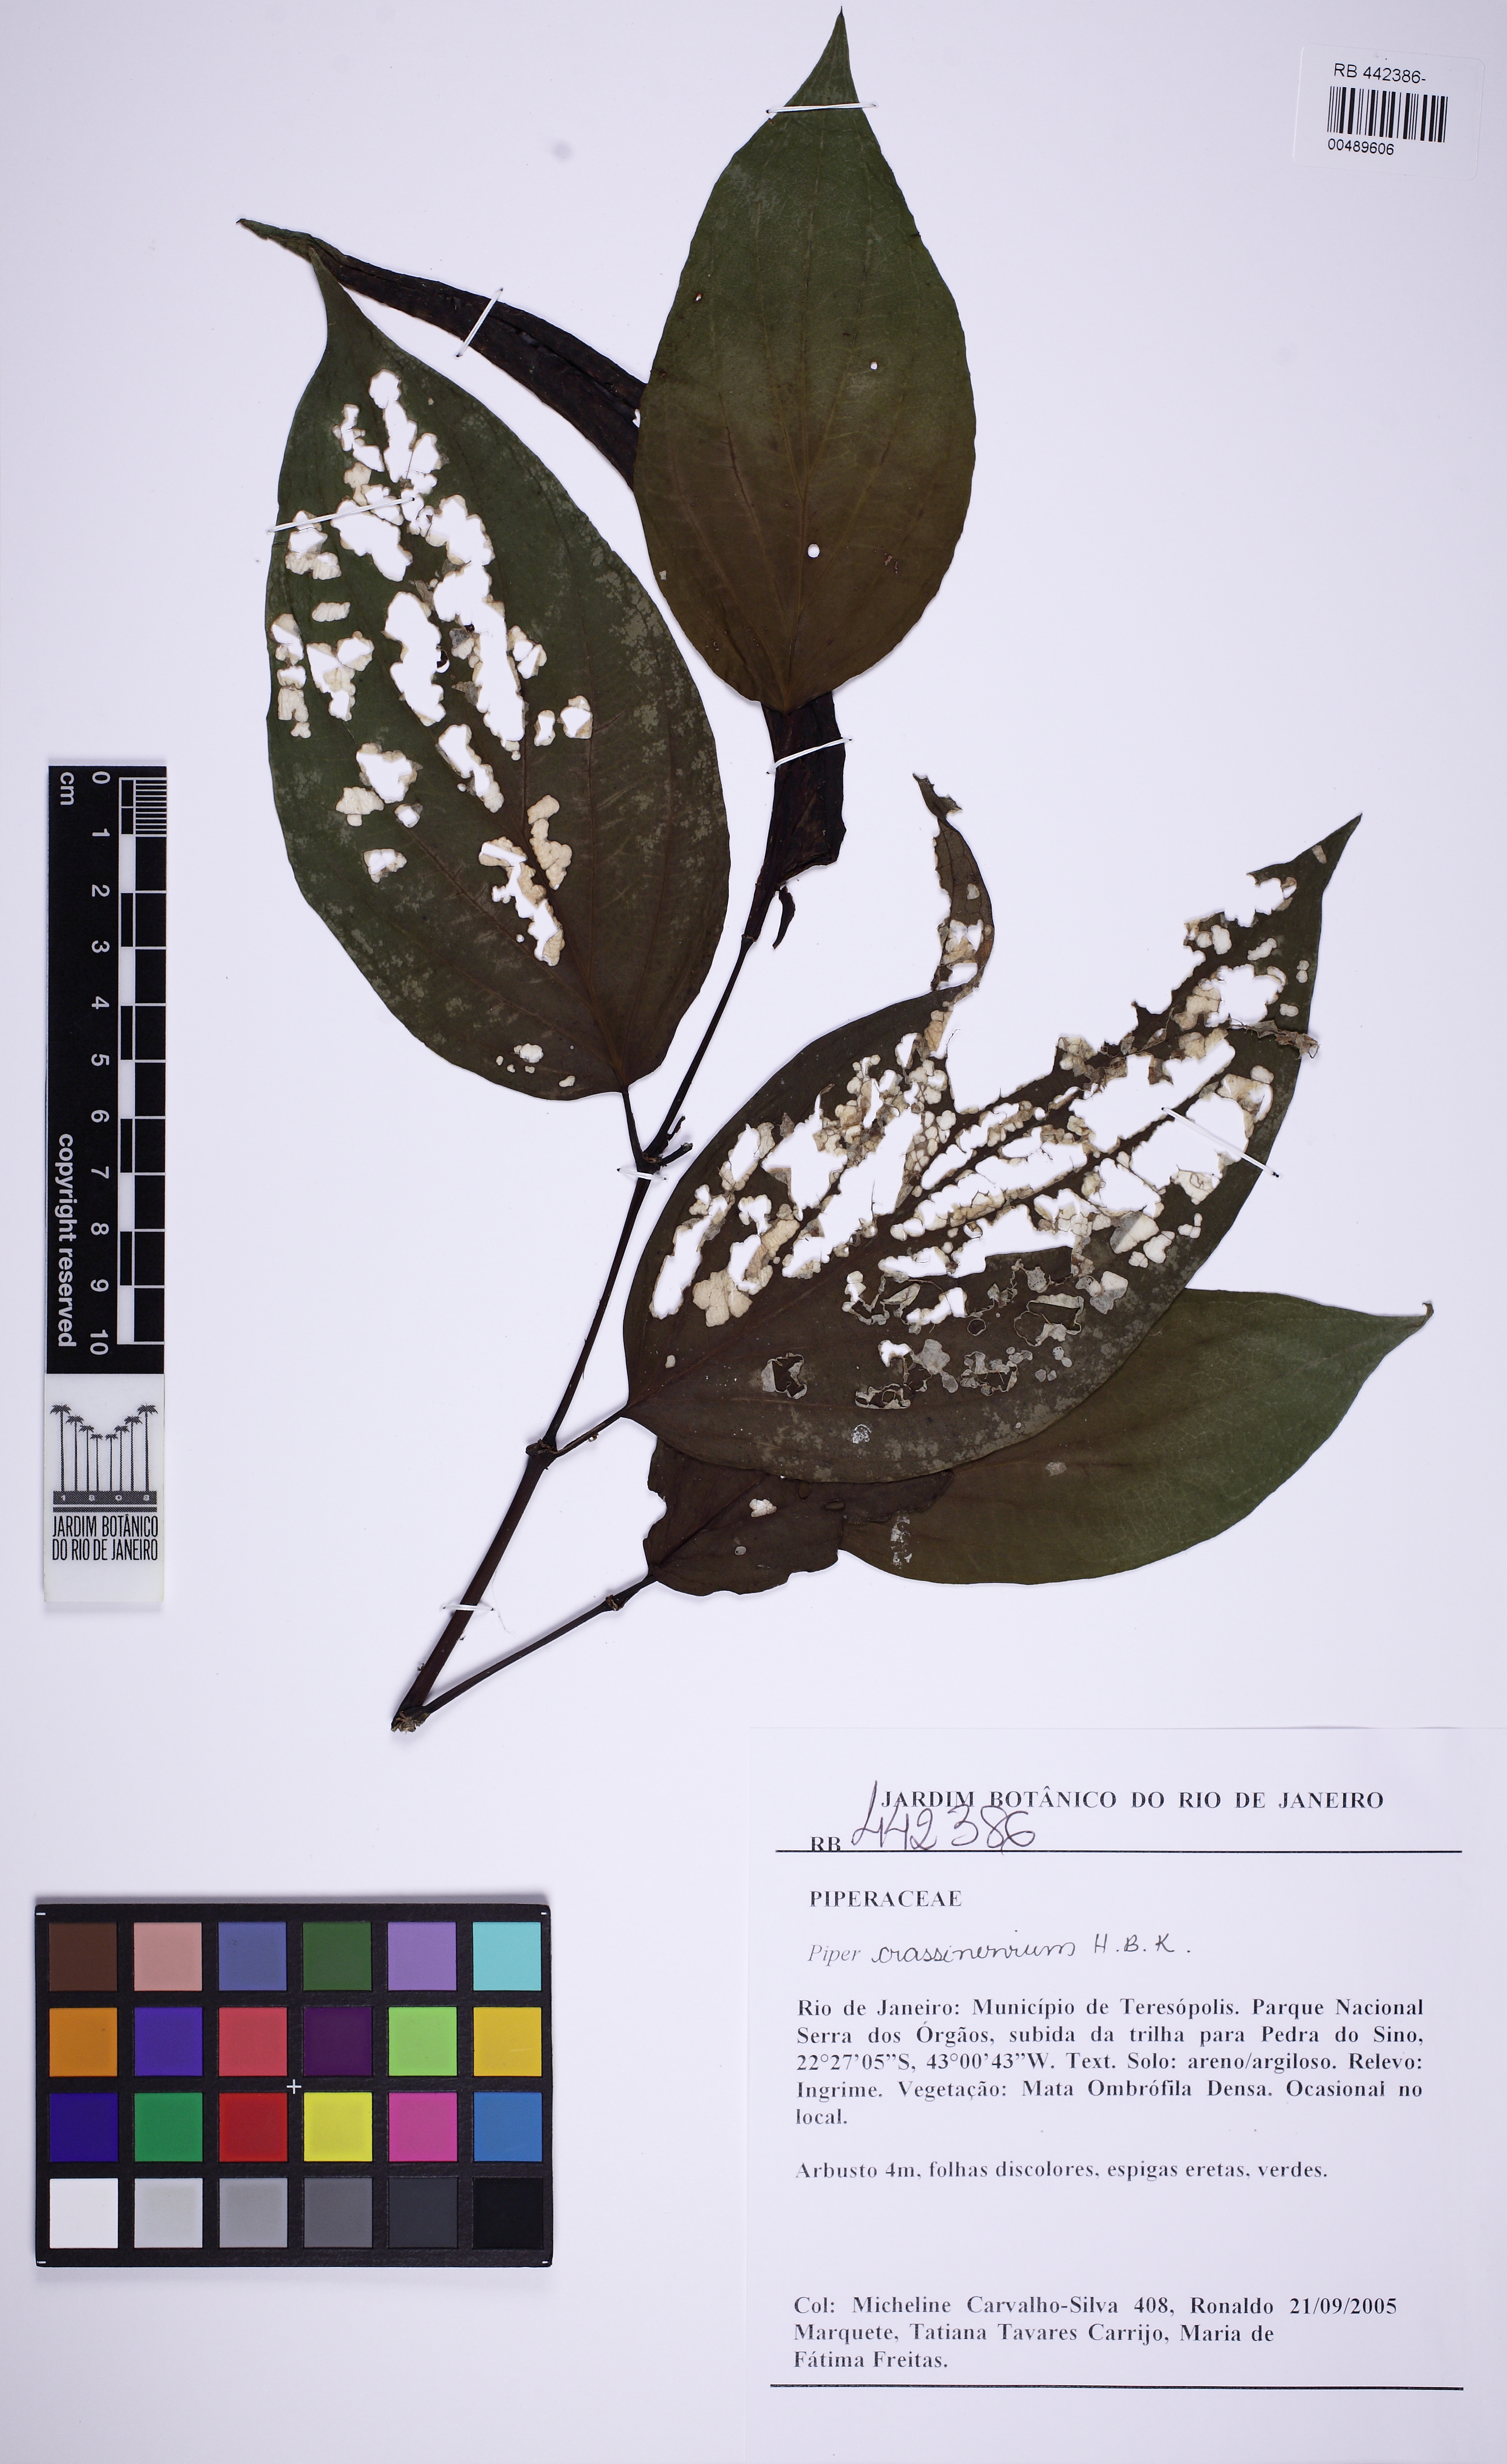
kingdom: Plantae
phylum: Tracheophyta
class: Magnoliopsida
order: Piperales
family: Piperaceae
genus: Piper
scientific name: Piper crassinervium
